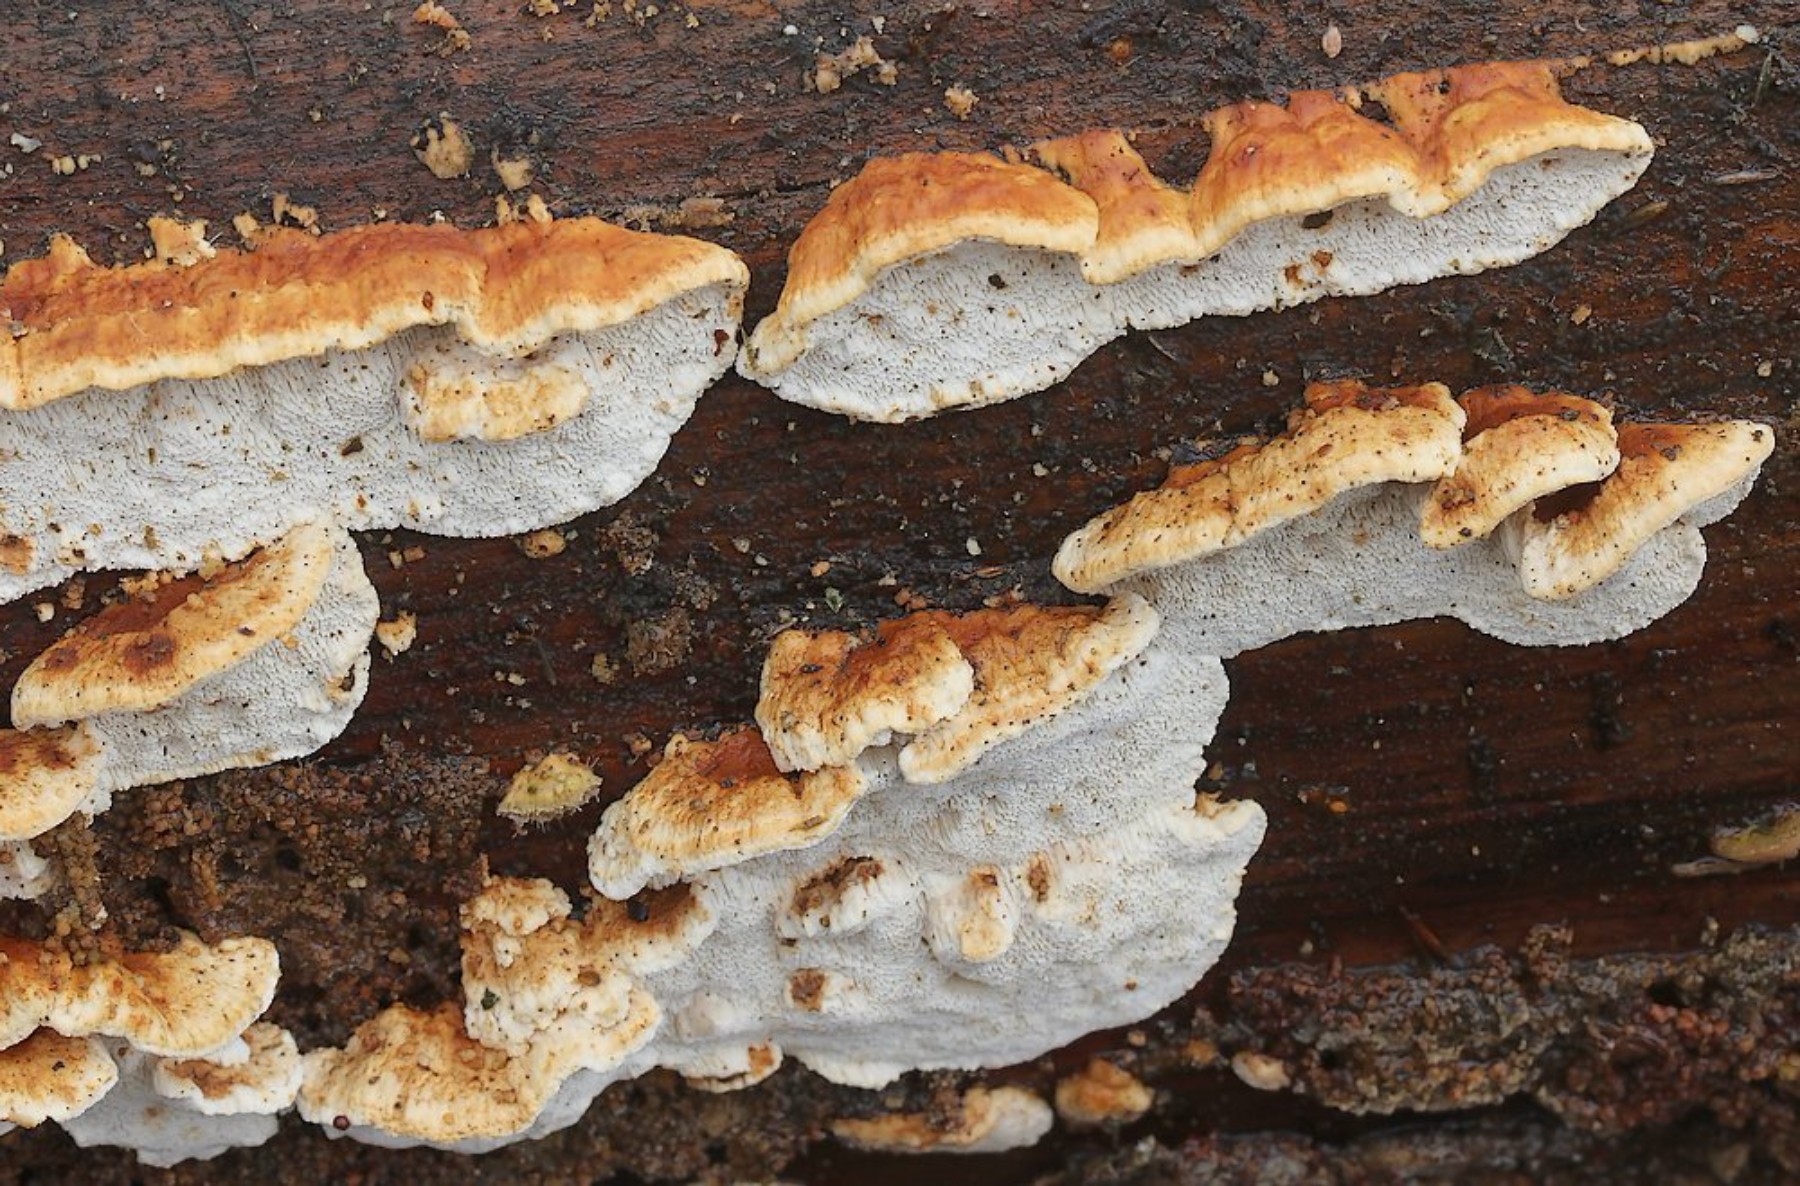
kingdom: Fungi
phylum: Basidiomycota
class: Agaricomycetes
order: Polyporales
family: Fomitopsidaceae
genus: Neoantrodia
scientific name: Neoantrodia serialis
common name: række-sejporesvamp
